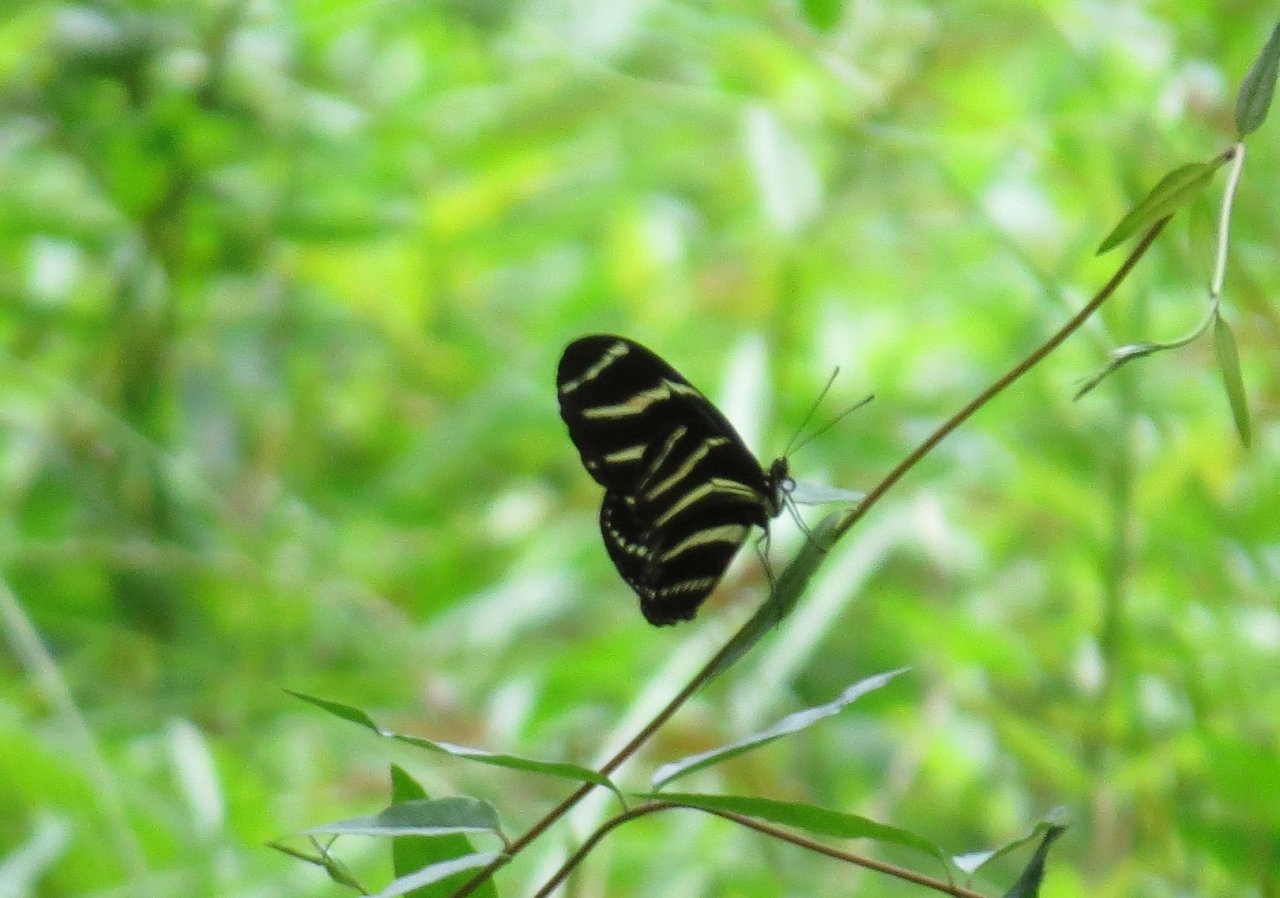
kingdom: Animalia
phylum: Arthropoda
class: Insecta
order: Lepidoptera
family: Nymphalidae
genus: Heliconius
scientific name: Heliconius charithonia
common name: Zebra Longwing
